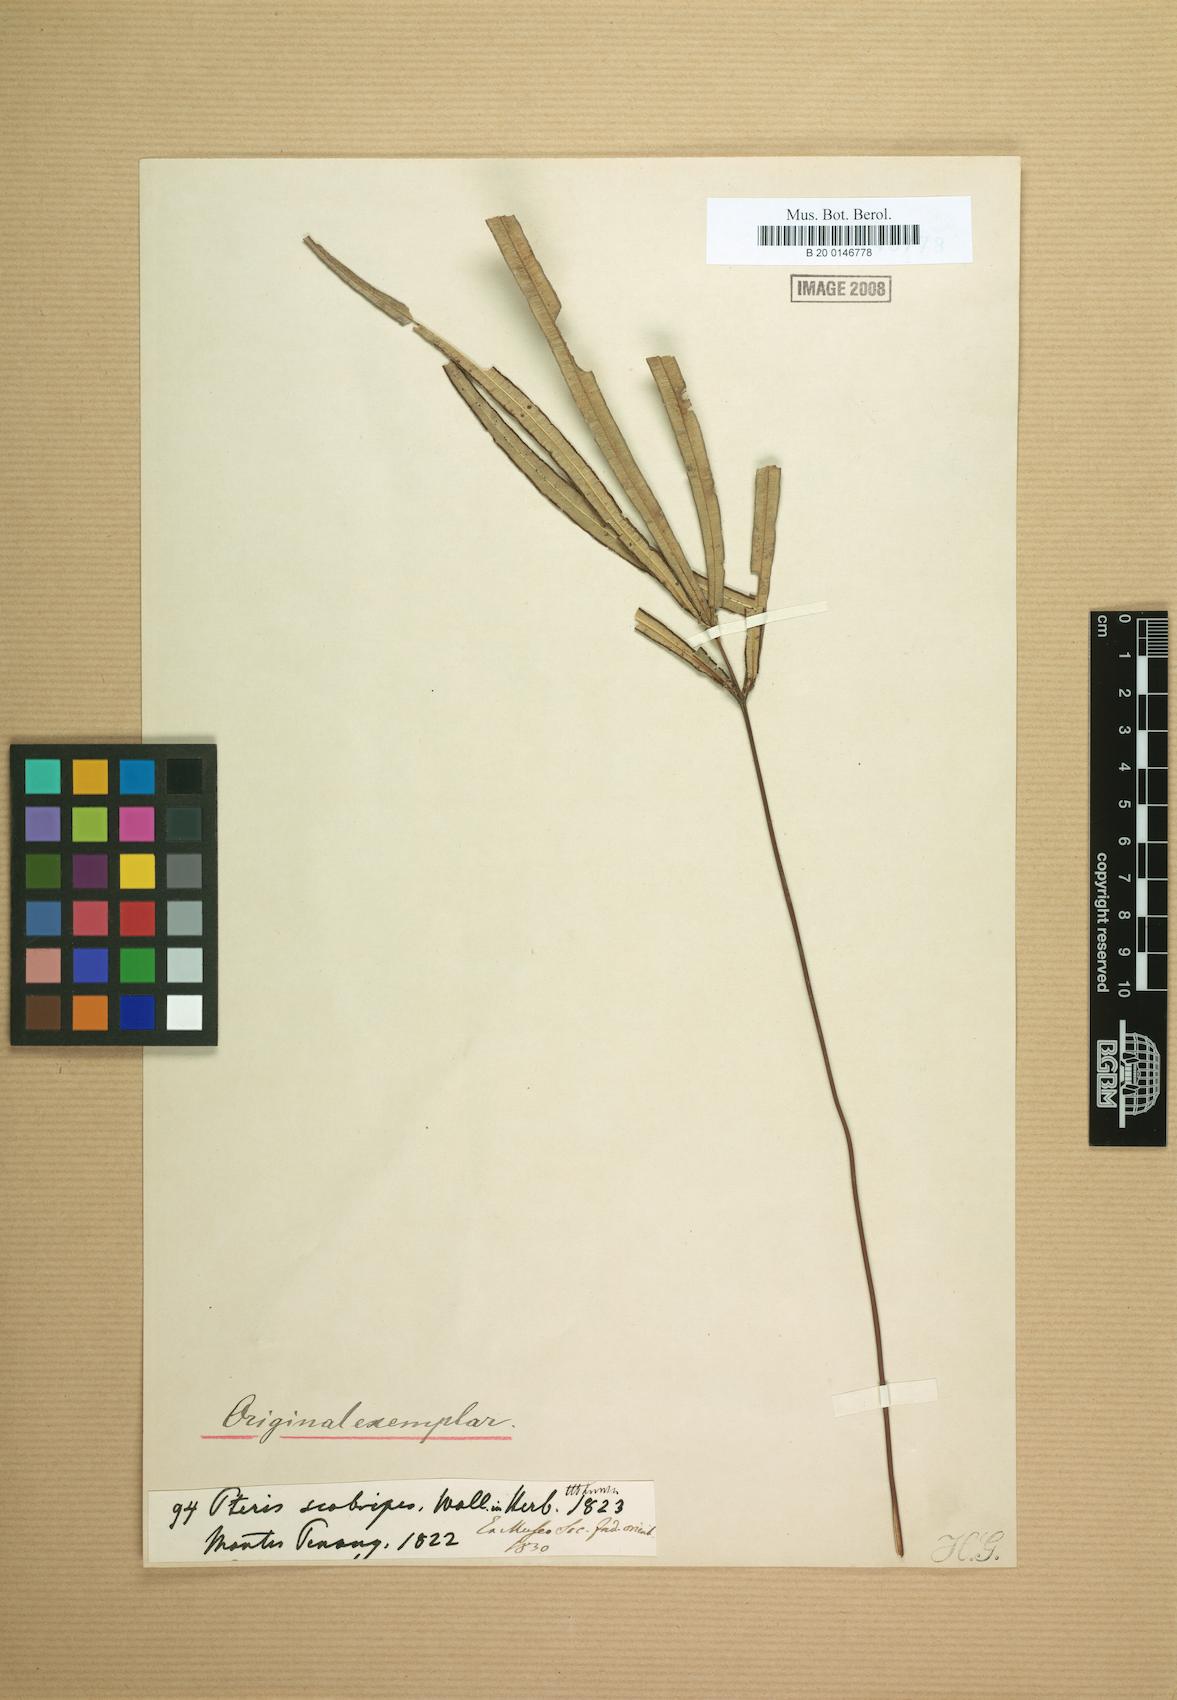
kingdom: Plantae
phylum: Tracheophyta
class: Polypodiopsida
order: Polypodiales
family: Pteridaceae
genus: Pteris
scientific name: Pteris scabripes
